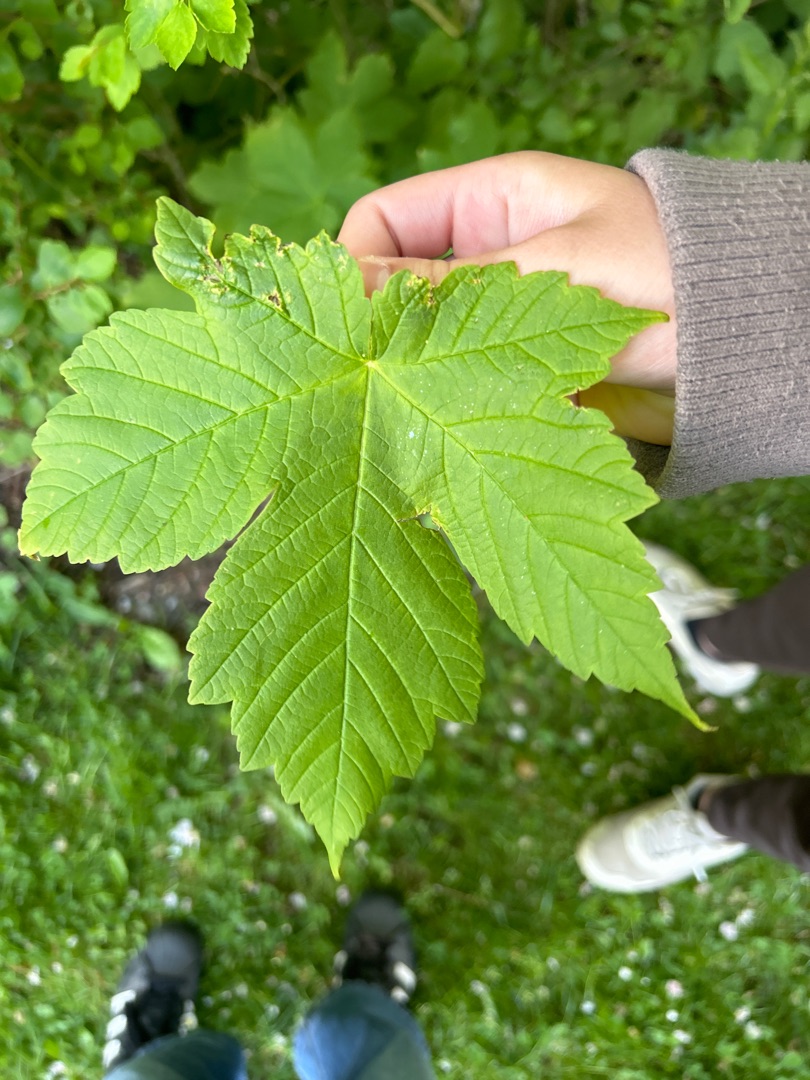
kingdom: Plantae
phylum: Tracheophyta
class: Magnoliopsida
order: Sapindales
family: Sapindaceae
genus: Acer
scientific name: Acer pseudoplatanus
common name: Ahorn
